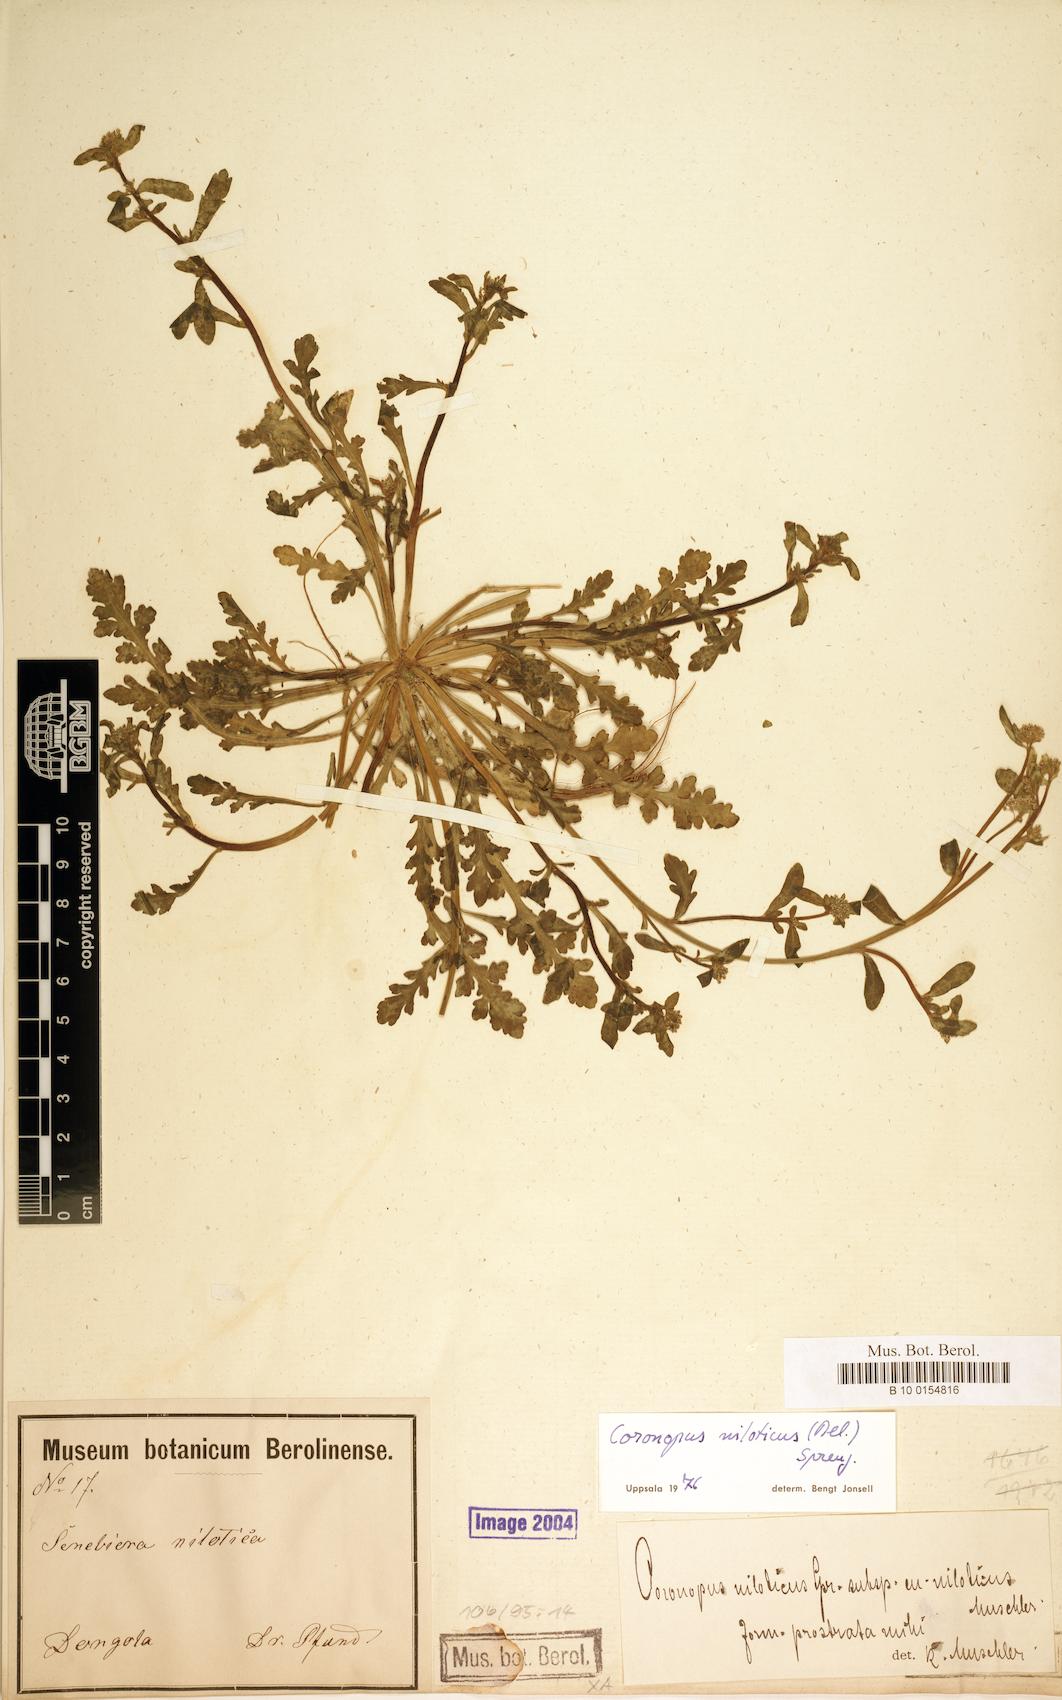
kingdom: Plantae
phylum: Tracheophyta
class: Magnoliopsida
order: Brassicales
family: Brassicaceae
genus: Lepidium
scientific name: Lepidium niloticum
